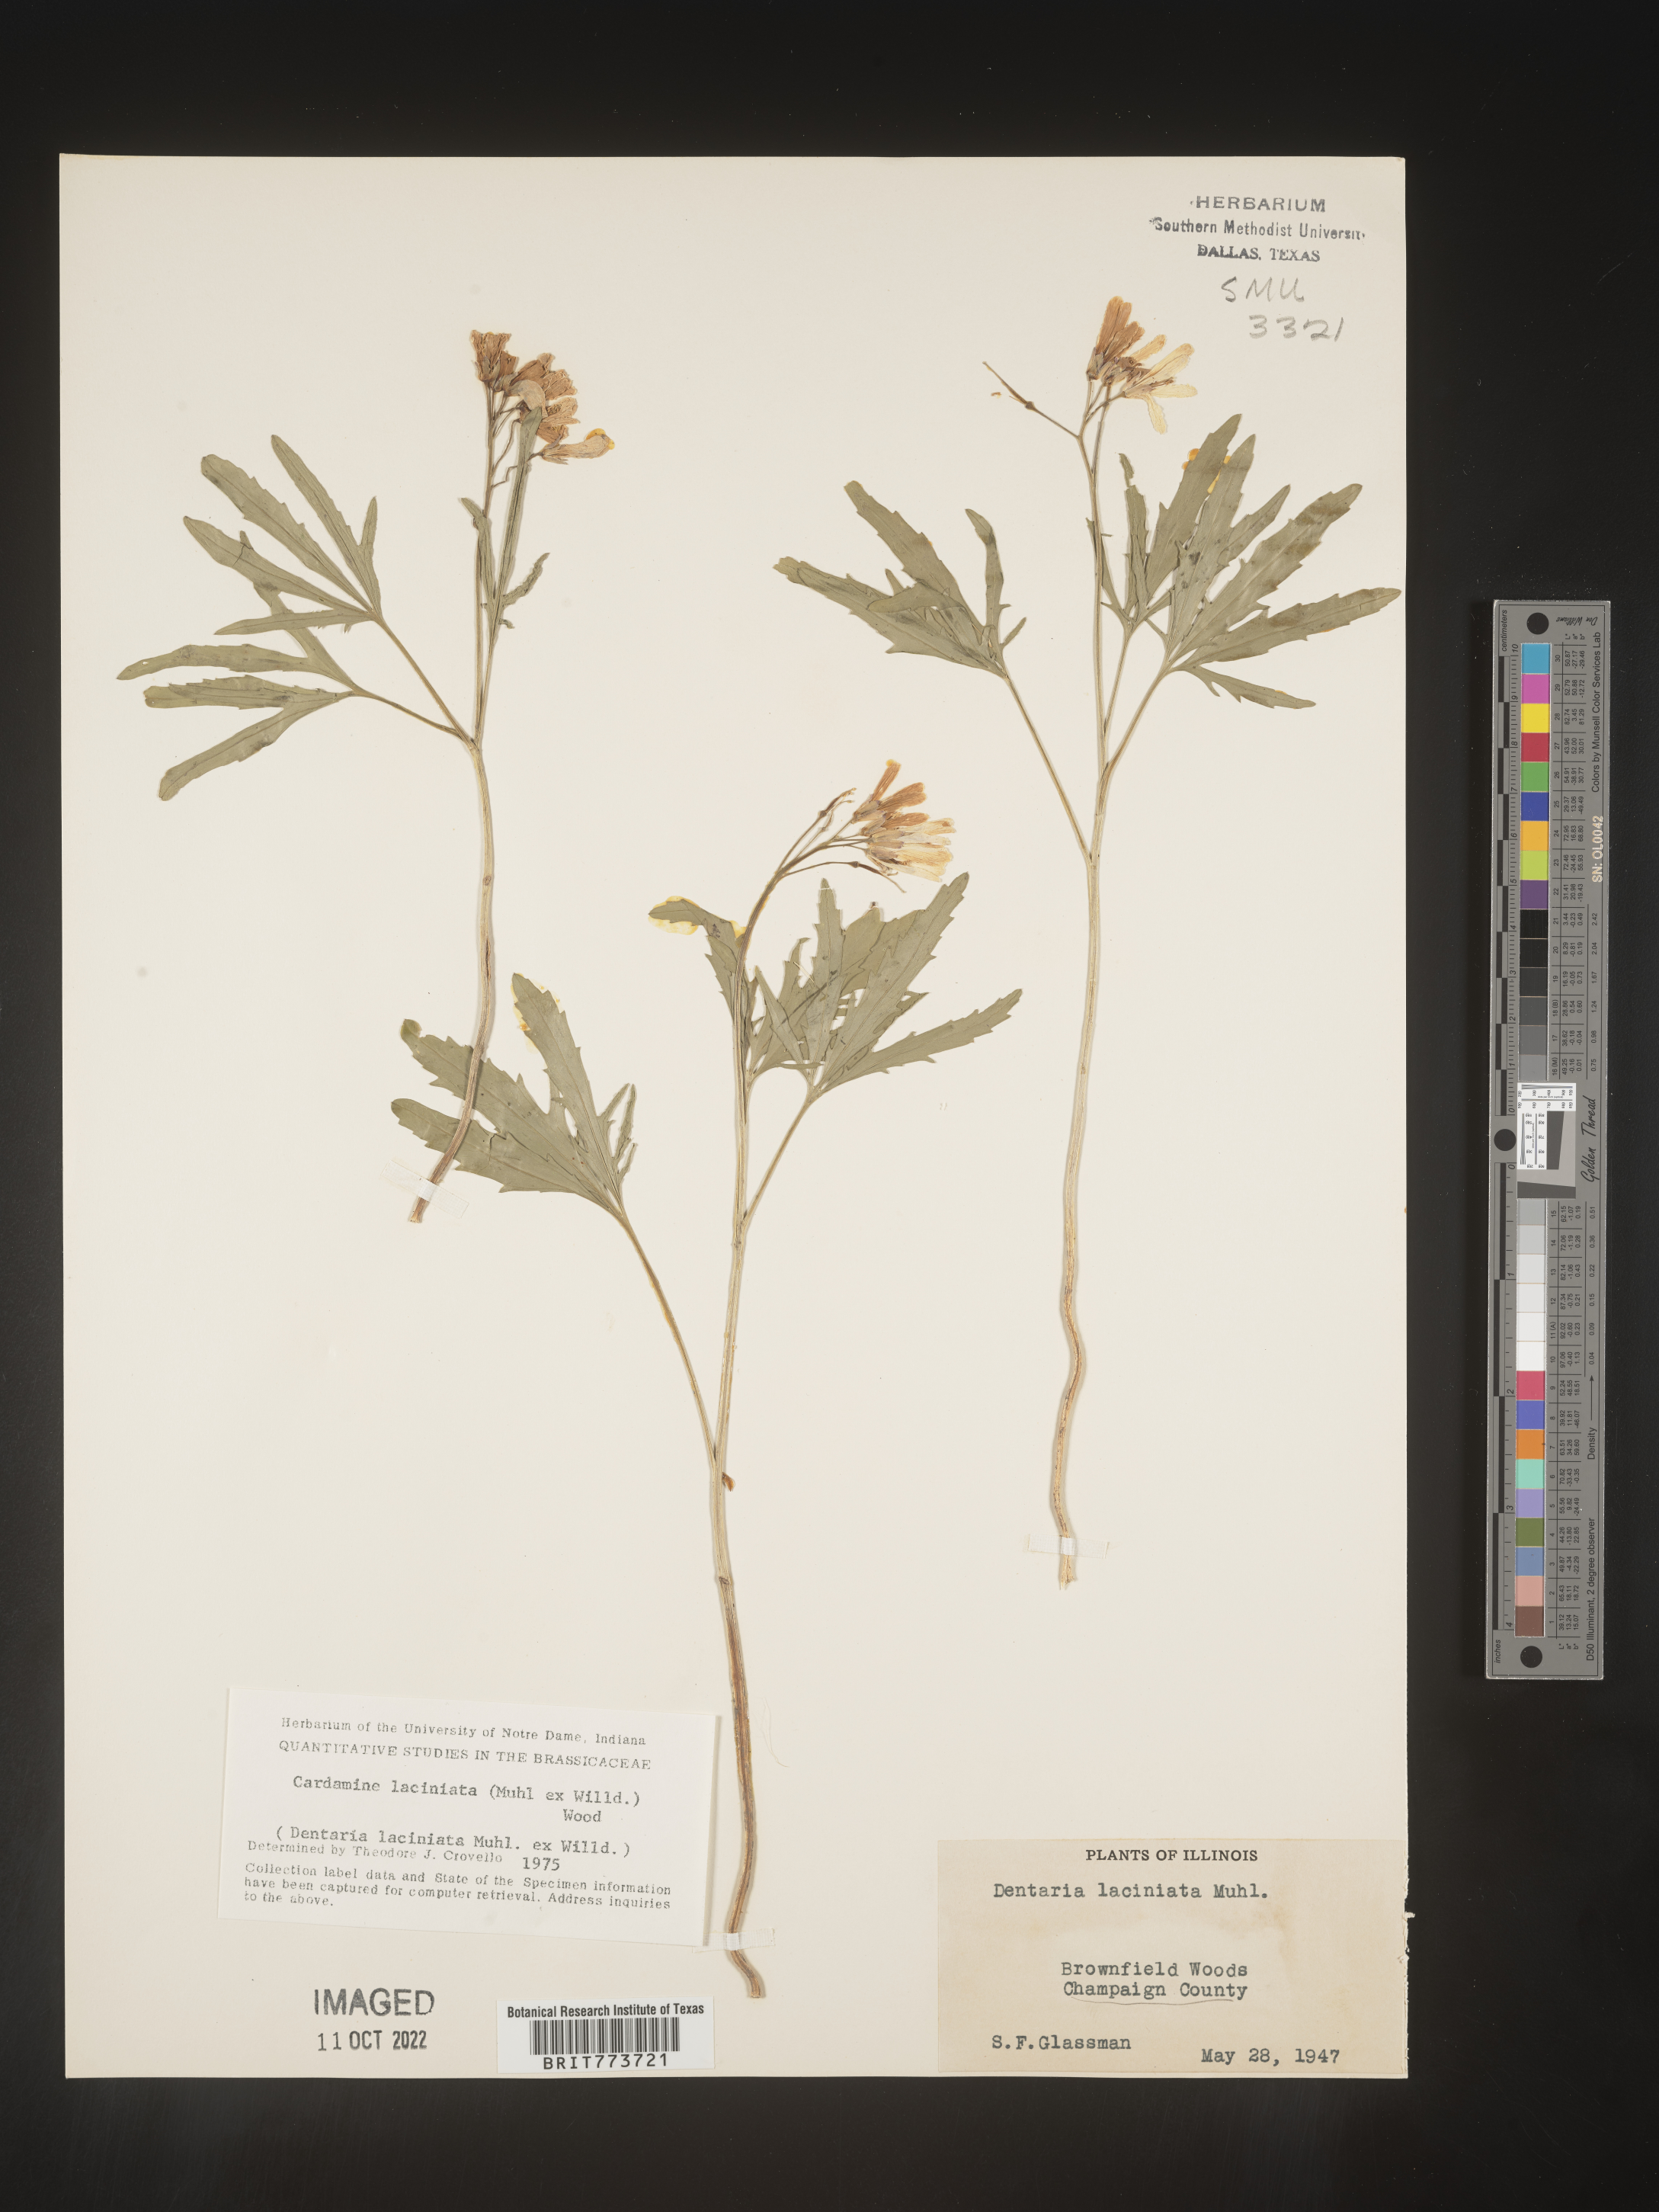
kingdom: Plantae
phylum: Tracheophyta
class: Magnoliopsida
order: Brassicales
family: Brassicaceae
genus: Rorippa
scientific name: Rorippa laciniata
